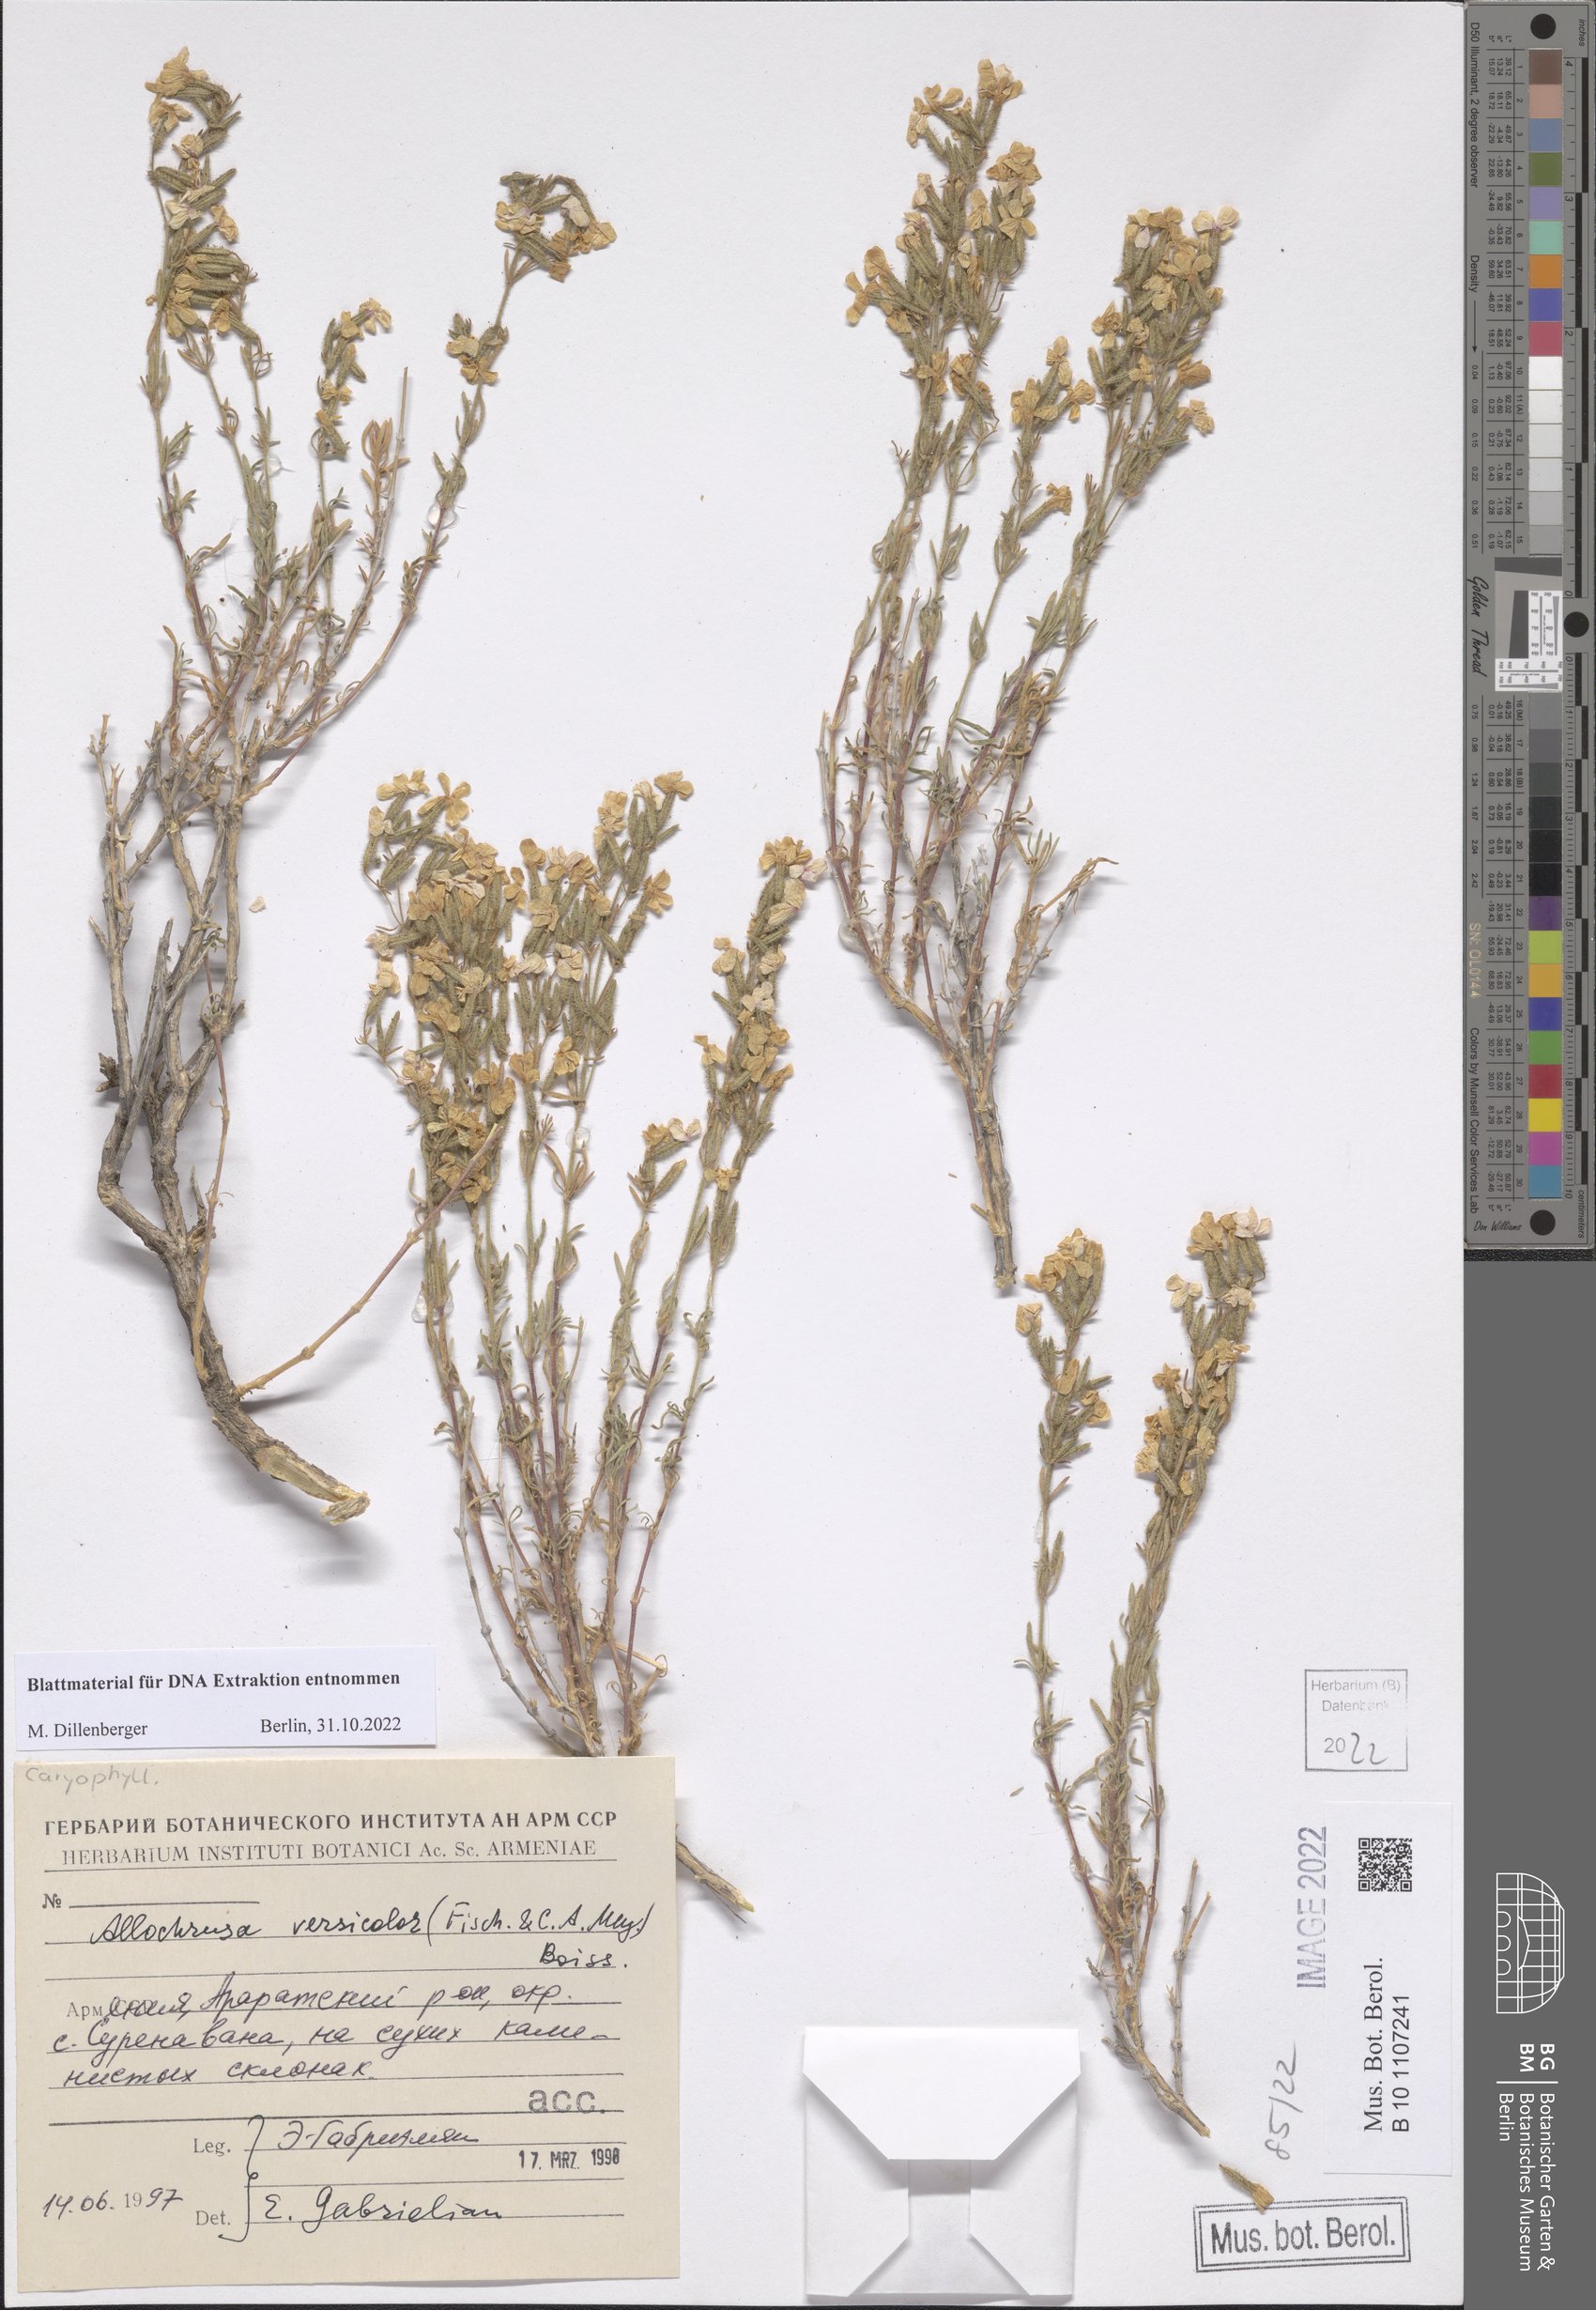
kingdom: Plantae
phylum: Tracheophyta
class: Magnoliopsida
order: Caryophyllales
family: Caryophyllaceae
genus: Acanthophyllum
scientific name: Acanthophyllum versicolor
